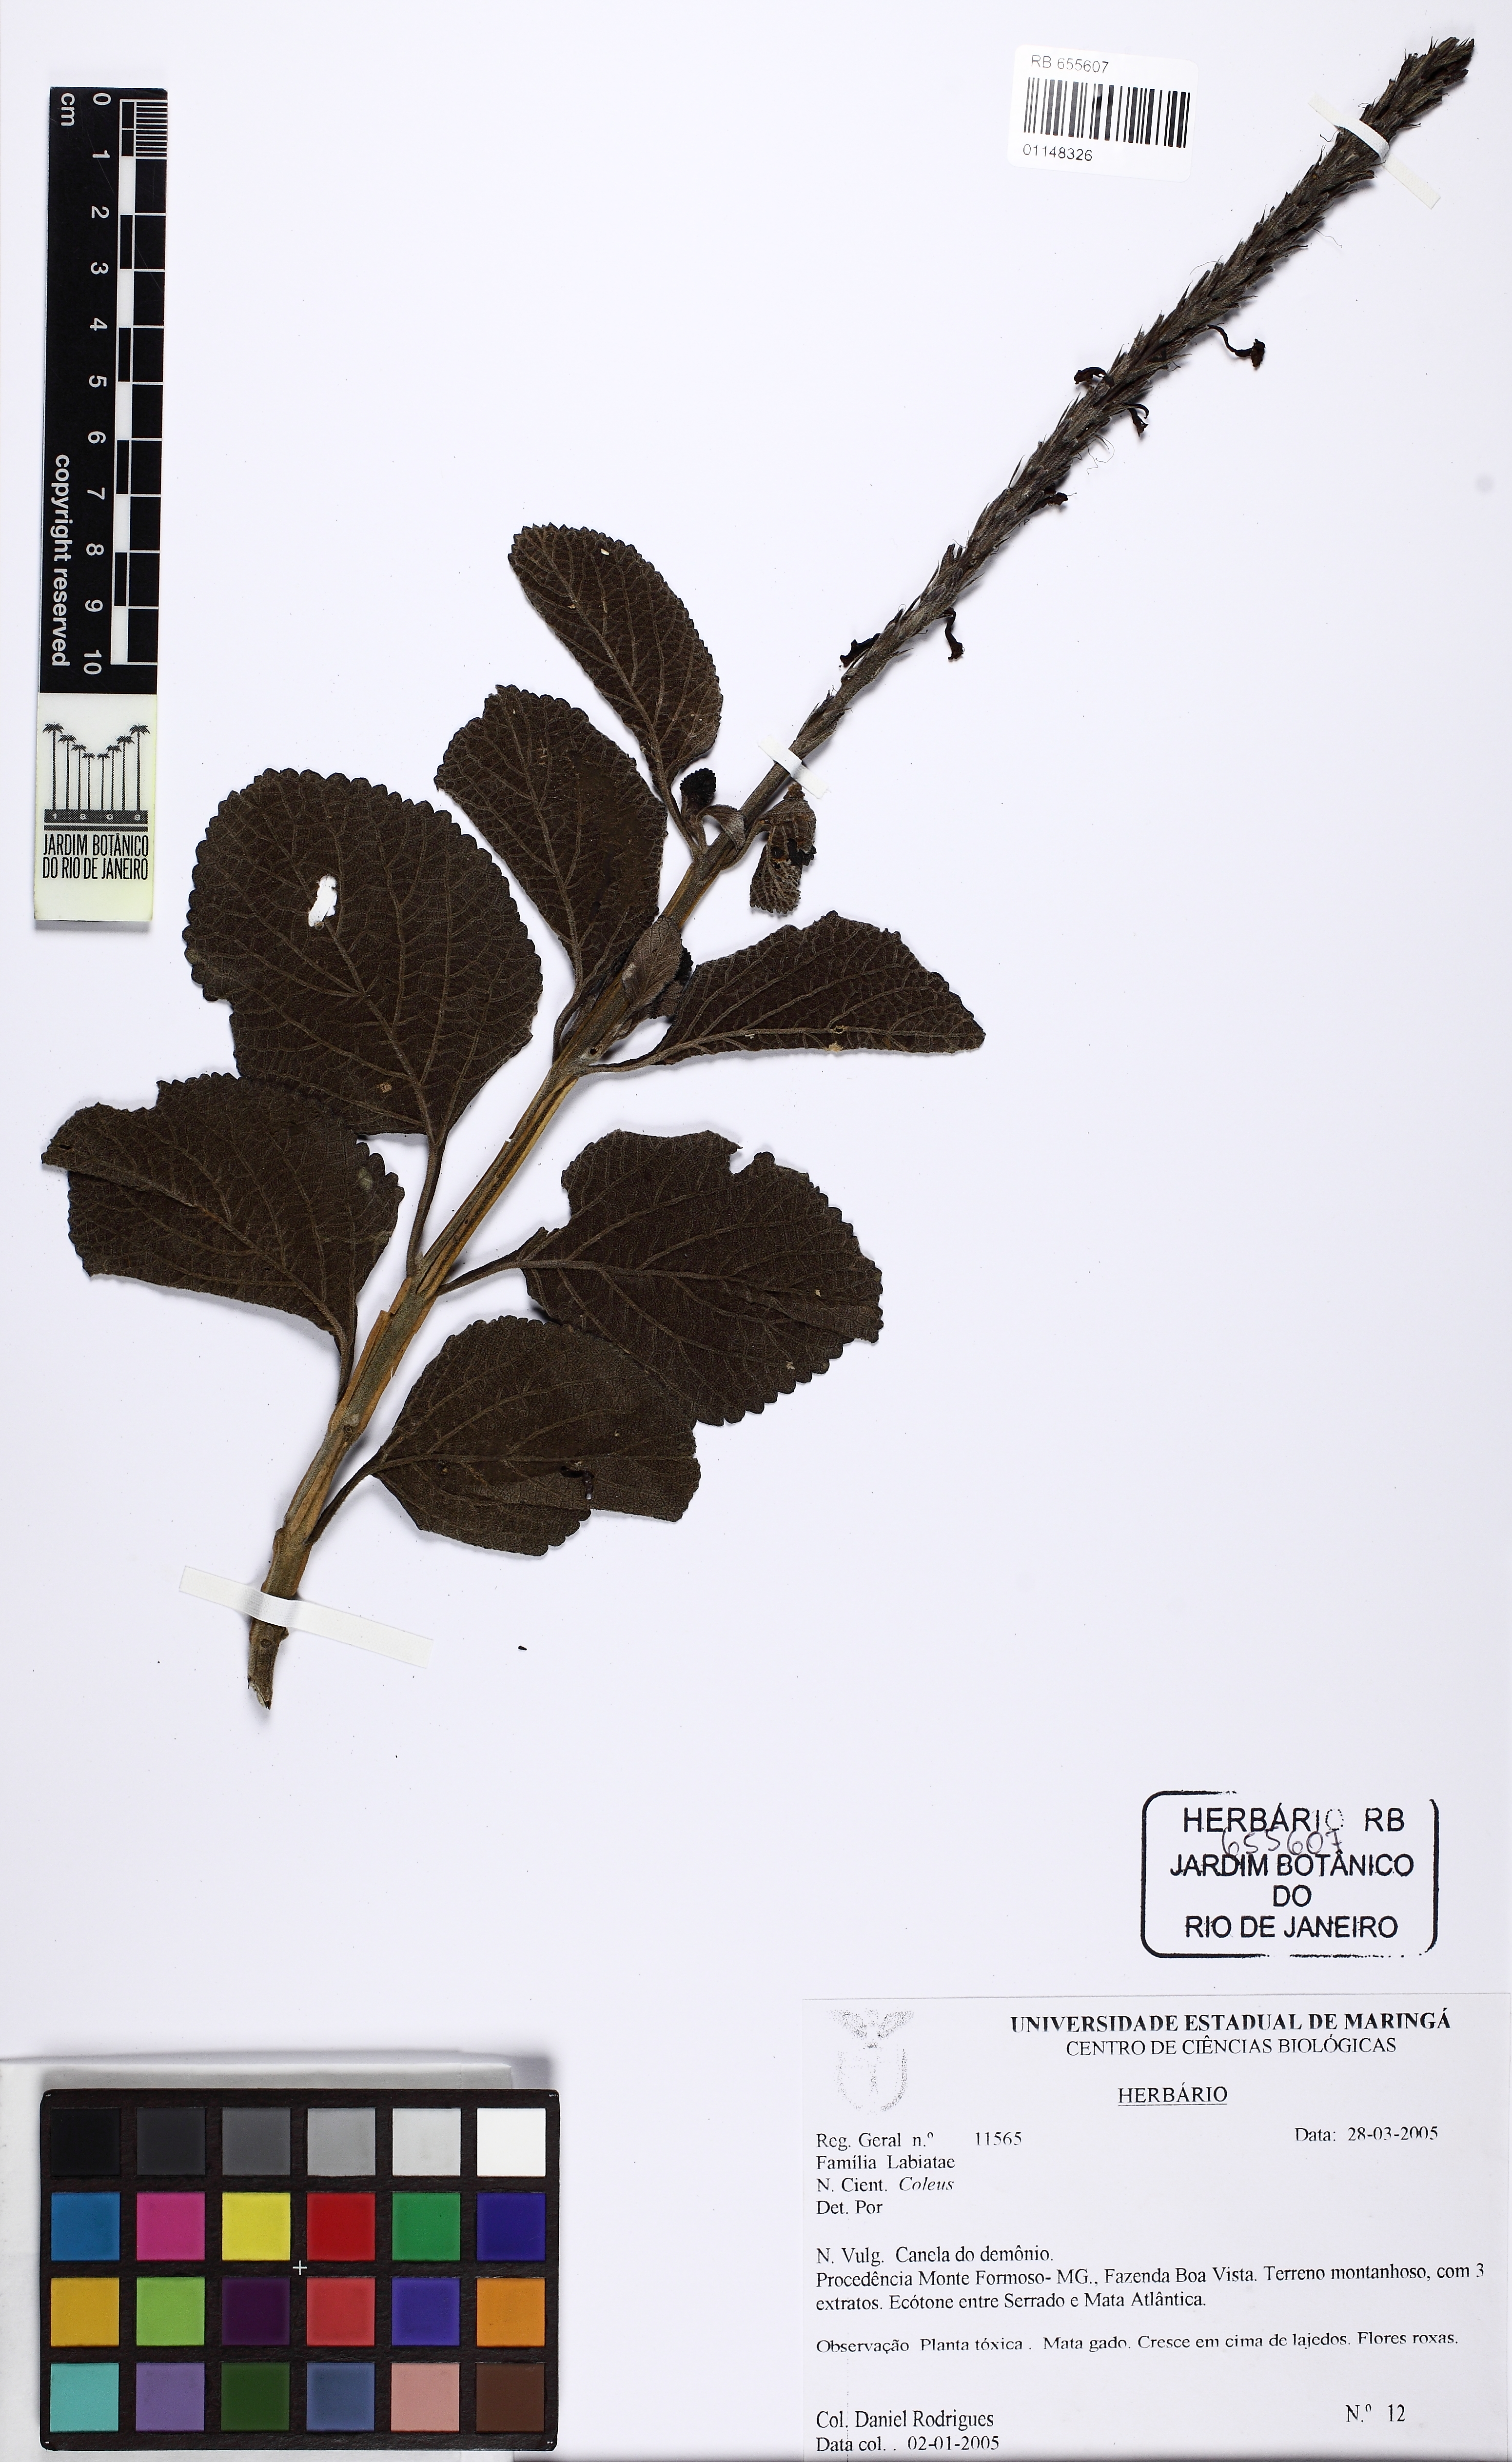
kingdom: Plantae
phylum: Tracheophyta
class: Magnoliopsida
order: Lamiales
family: Lamiaceae
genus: Coleus
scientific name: Coleus
